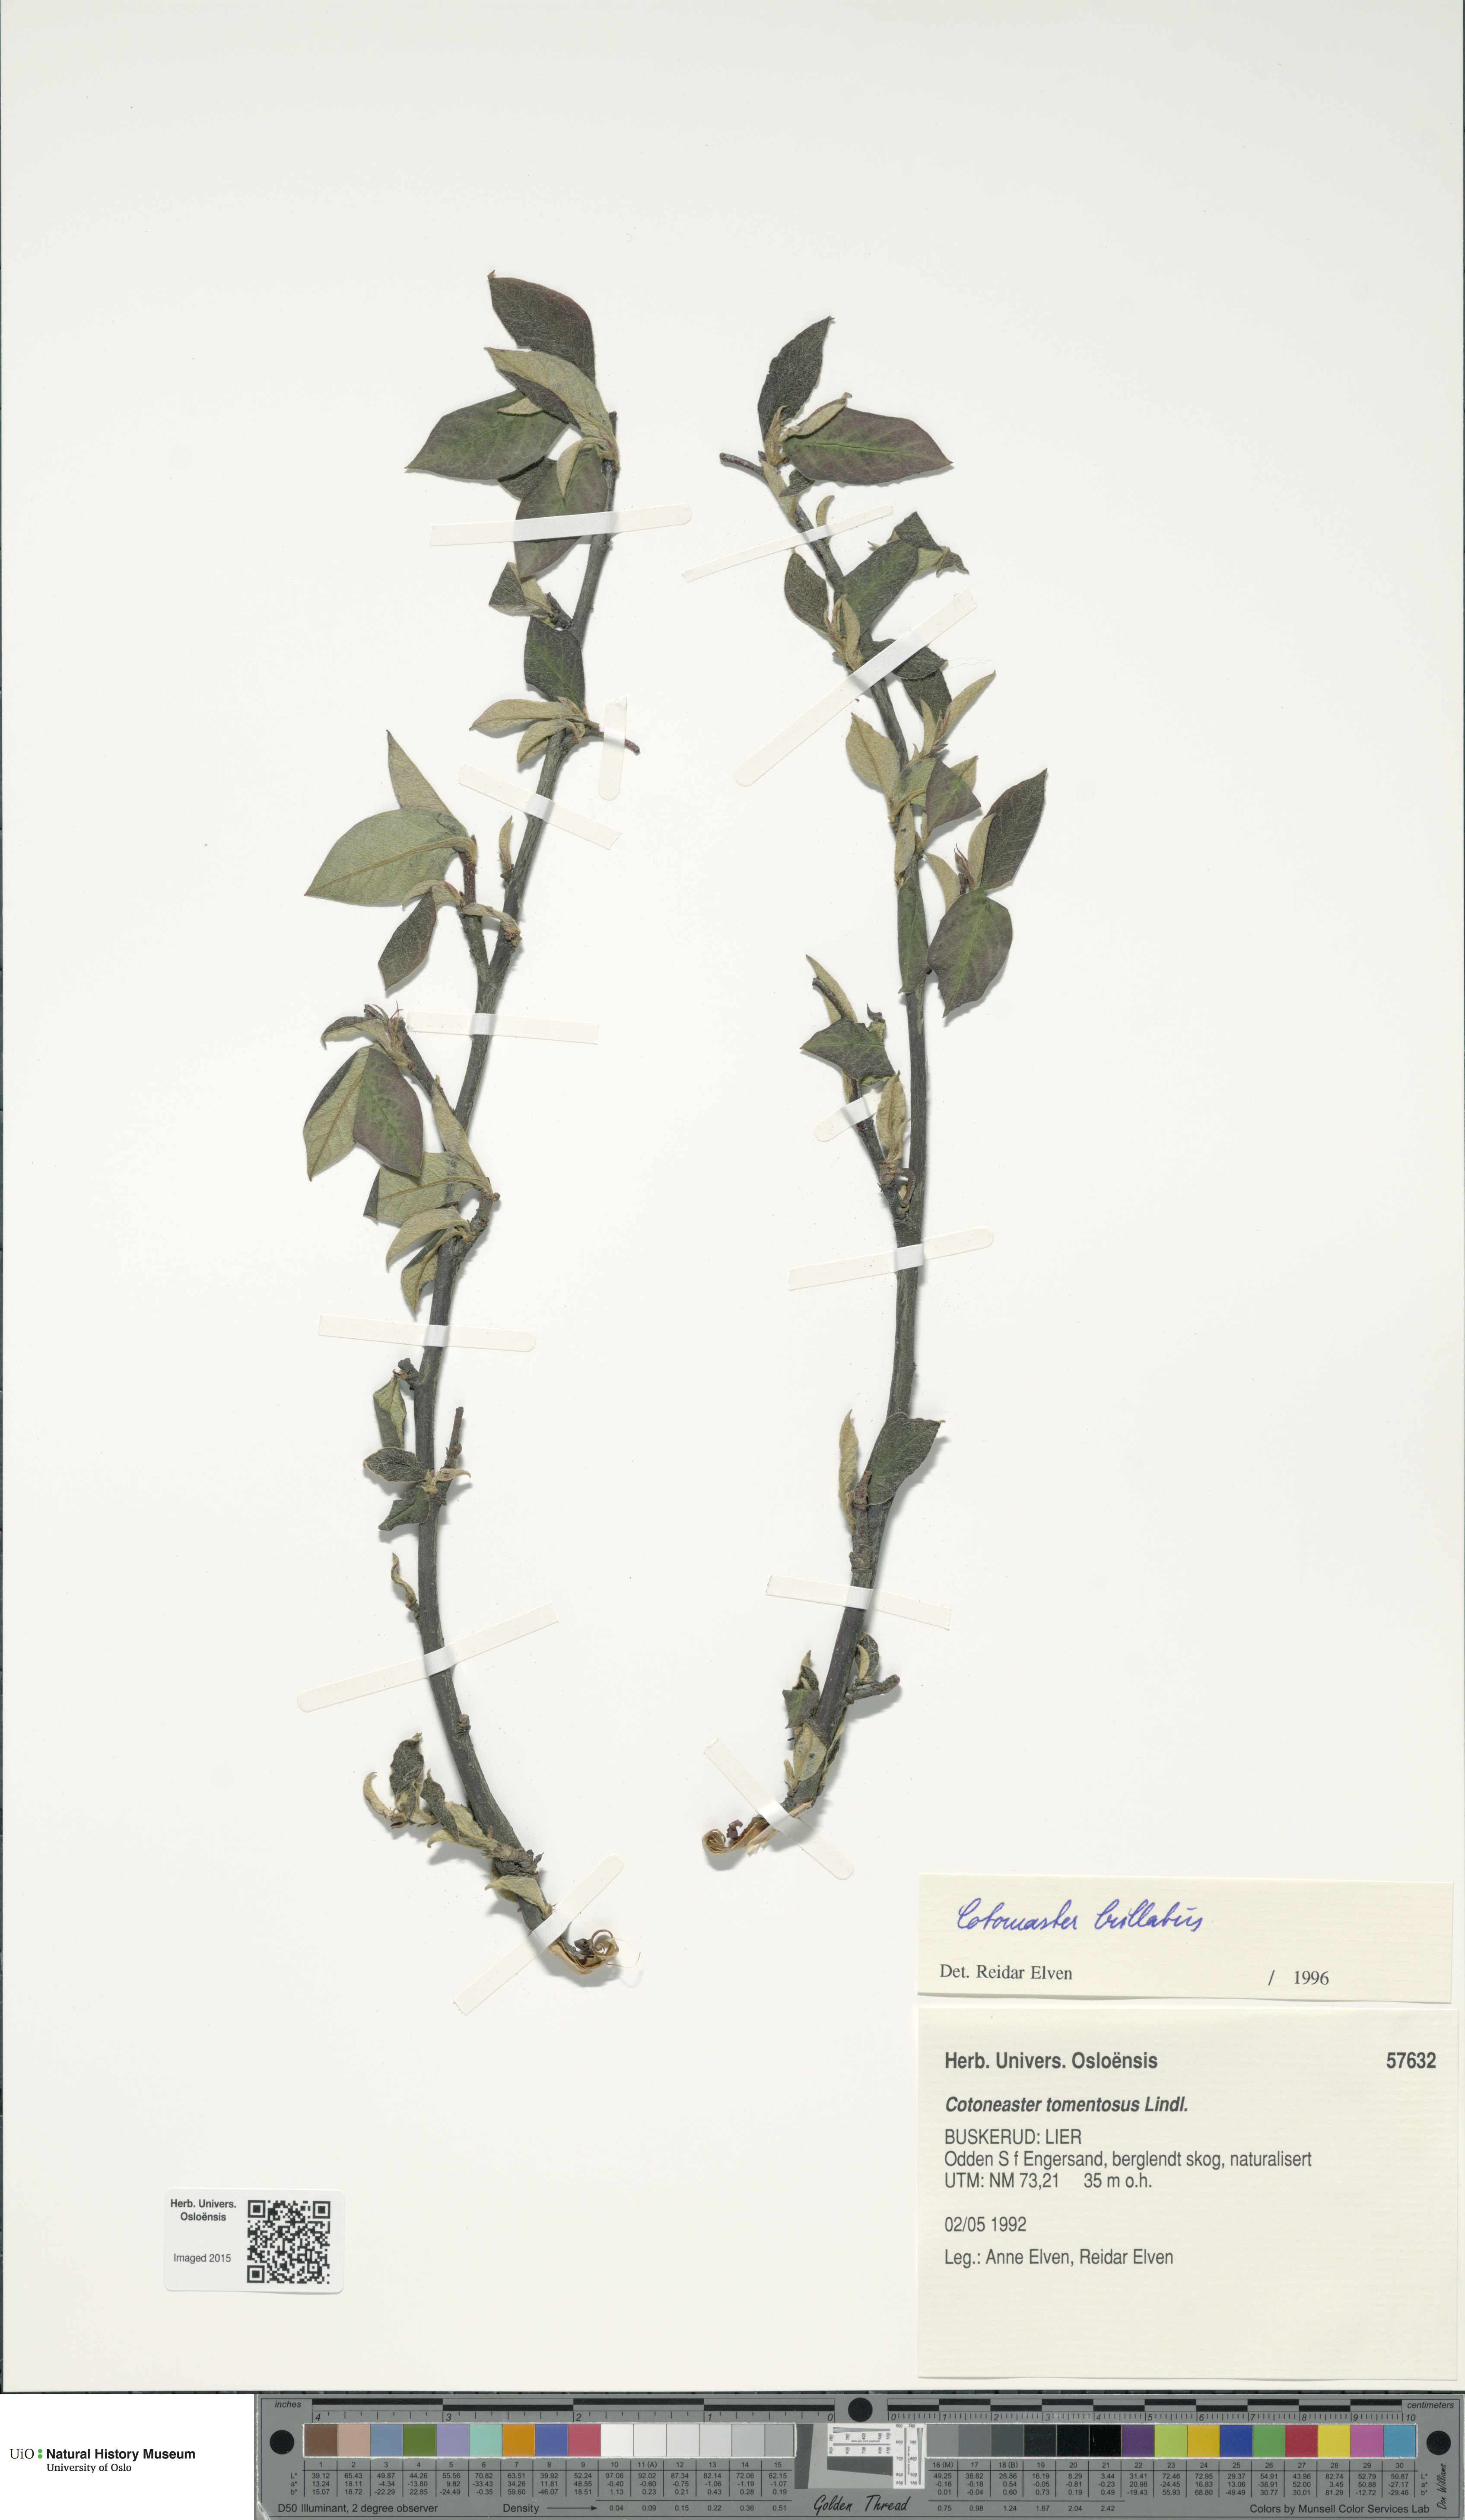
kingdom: Plantae
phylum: Tracheophyta
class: Magnoliopsida
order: Rosales
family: Rosaceae
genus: Cotoneaster
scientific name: Cotoneaster bullatus
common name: Hollyberry cotoneaster
